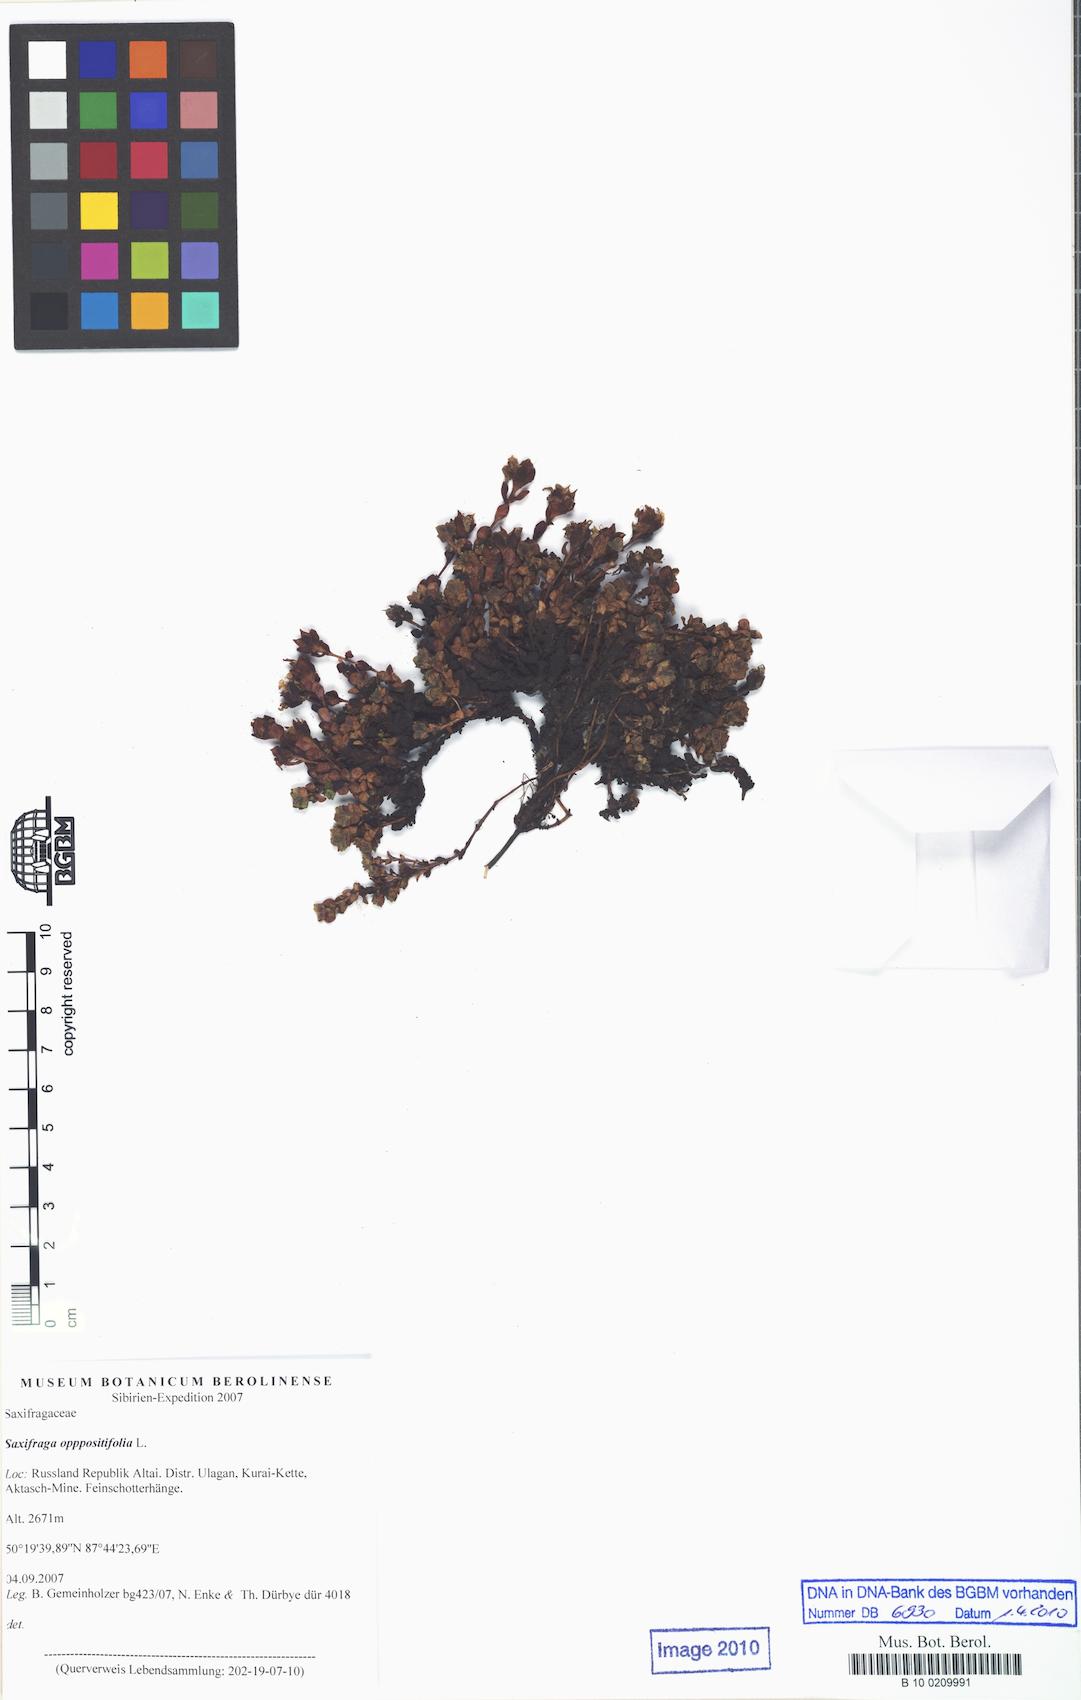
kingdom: Plantae
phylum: Tracheophyta
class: Magnoliopsida
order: Saxifragales
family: Saxifragaceae
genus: Saxifraga
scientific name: Saxifraga oppositifolia
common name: Purple saxifrage
